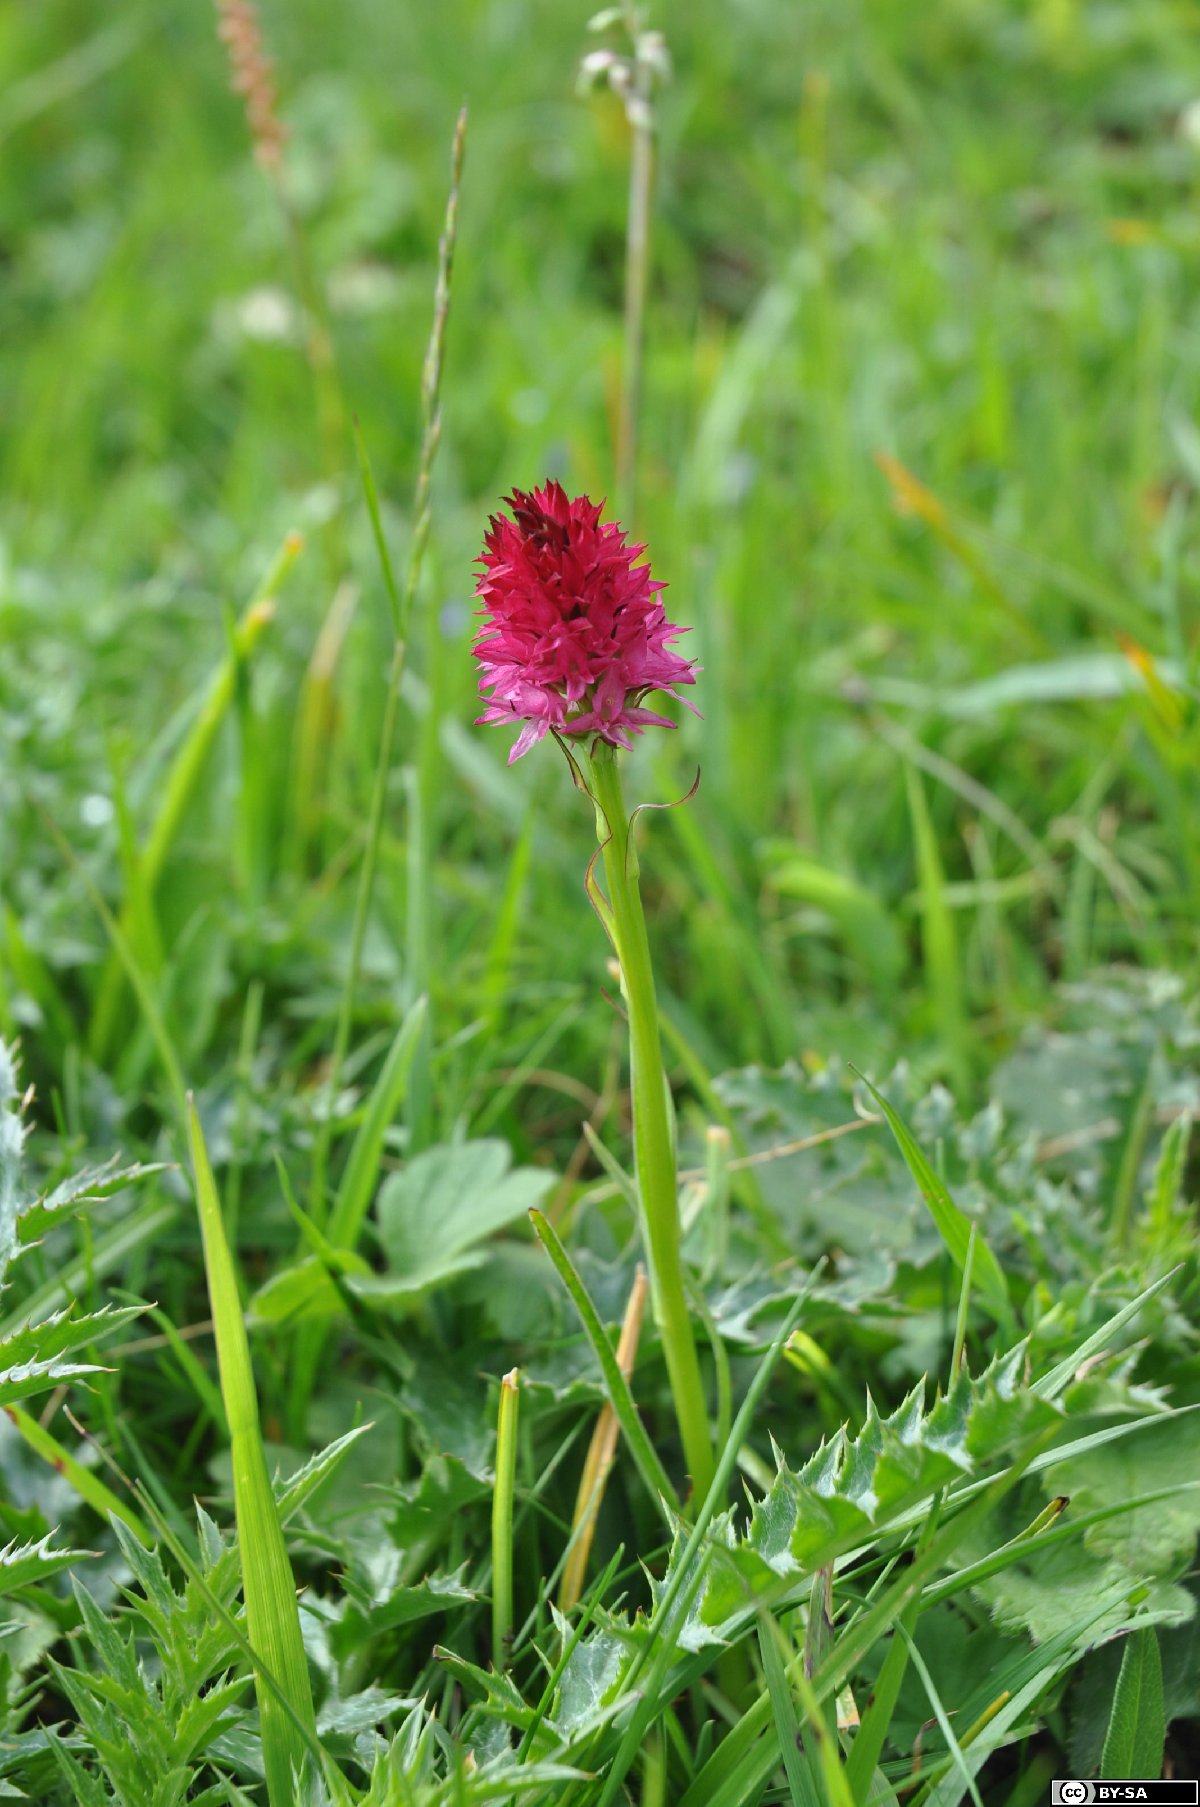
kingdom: Plantae
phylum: Tracheophyta
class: Liliopsida
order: Asparagales
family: Orchidaceae
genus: Gymnadenia
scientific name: Gymnadenia bicolor
